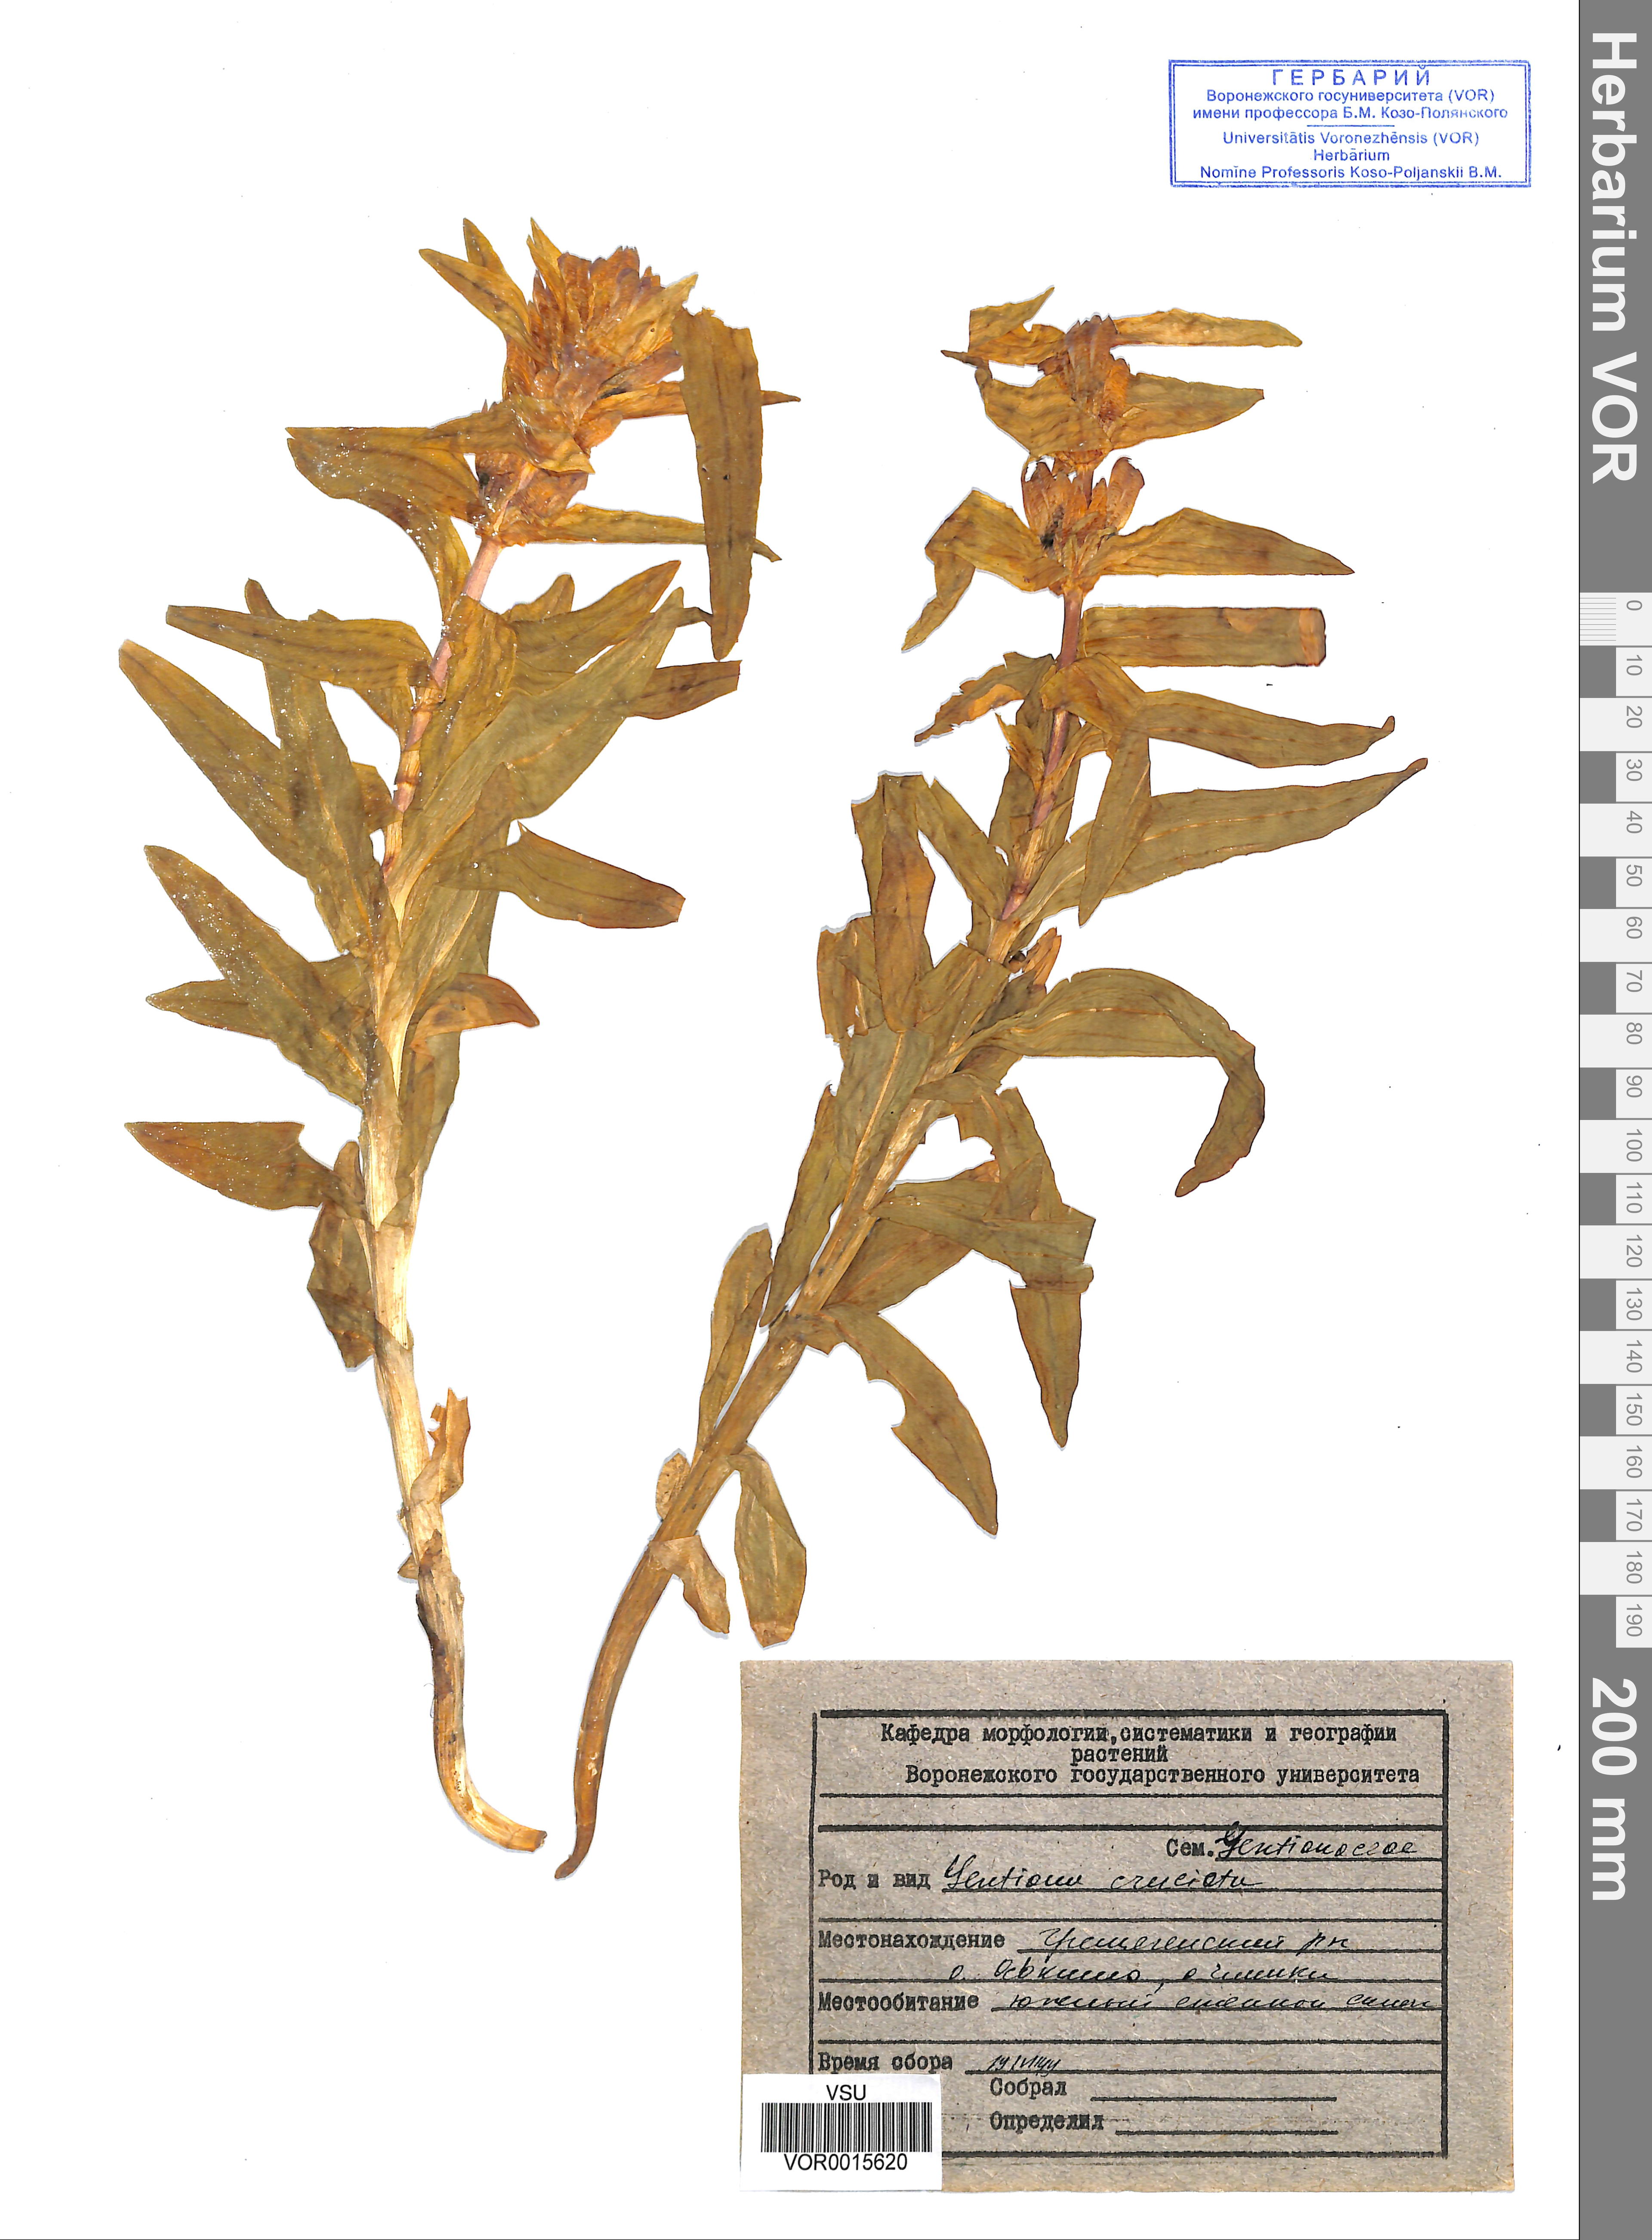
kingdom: Plantae
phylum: Tracheophyta
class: Magnoliopsida
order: Gentianales
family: Gentianaceae
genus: Gentiana
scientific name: Gentiana cruciata
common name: Cross gentian
